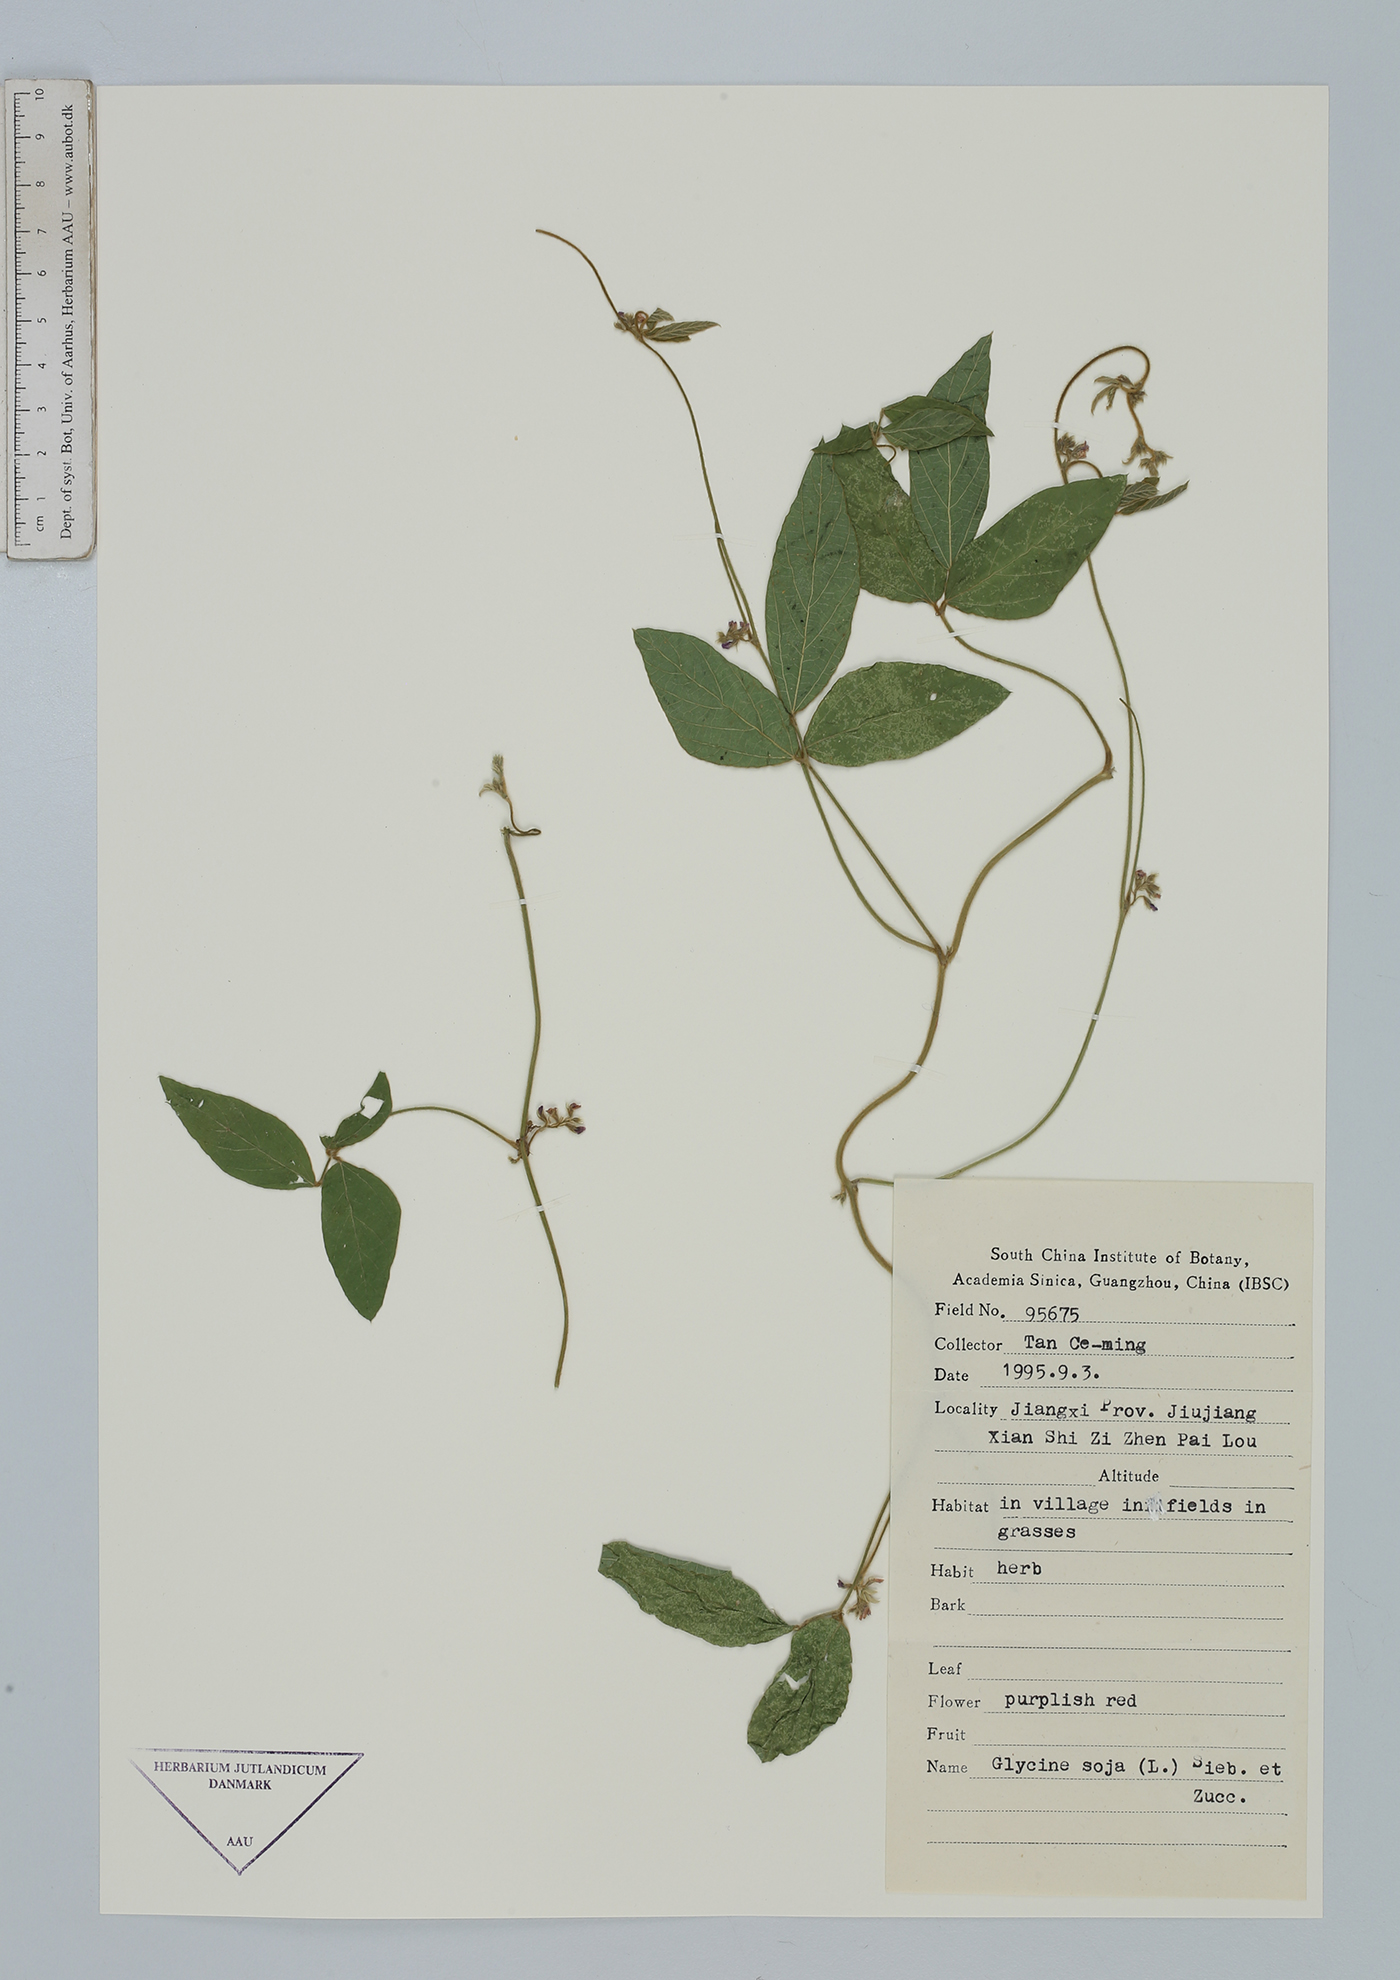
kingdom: Plantae
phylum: Tracheophyta
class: Magnoliopsida
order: Fabales
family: Fabaceae
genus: Glycine
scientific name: Glycine max
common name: Soya-bean
